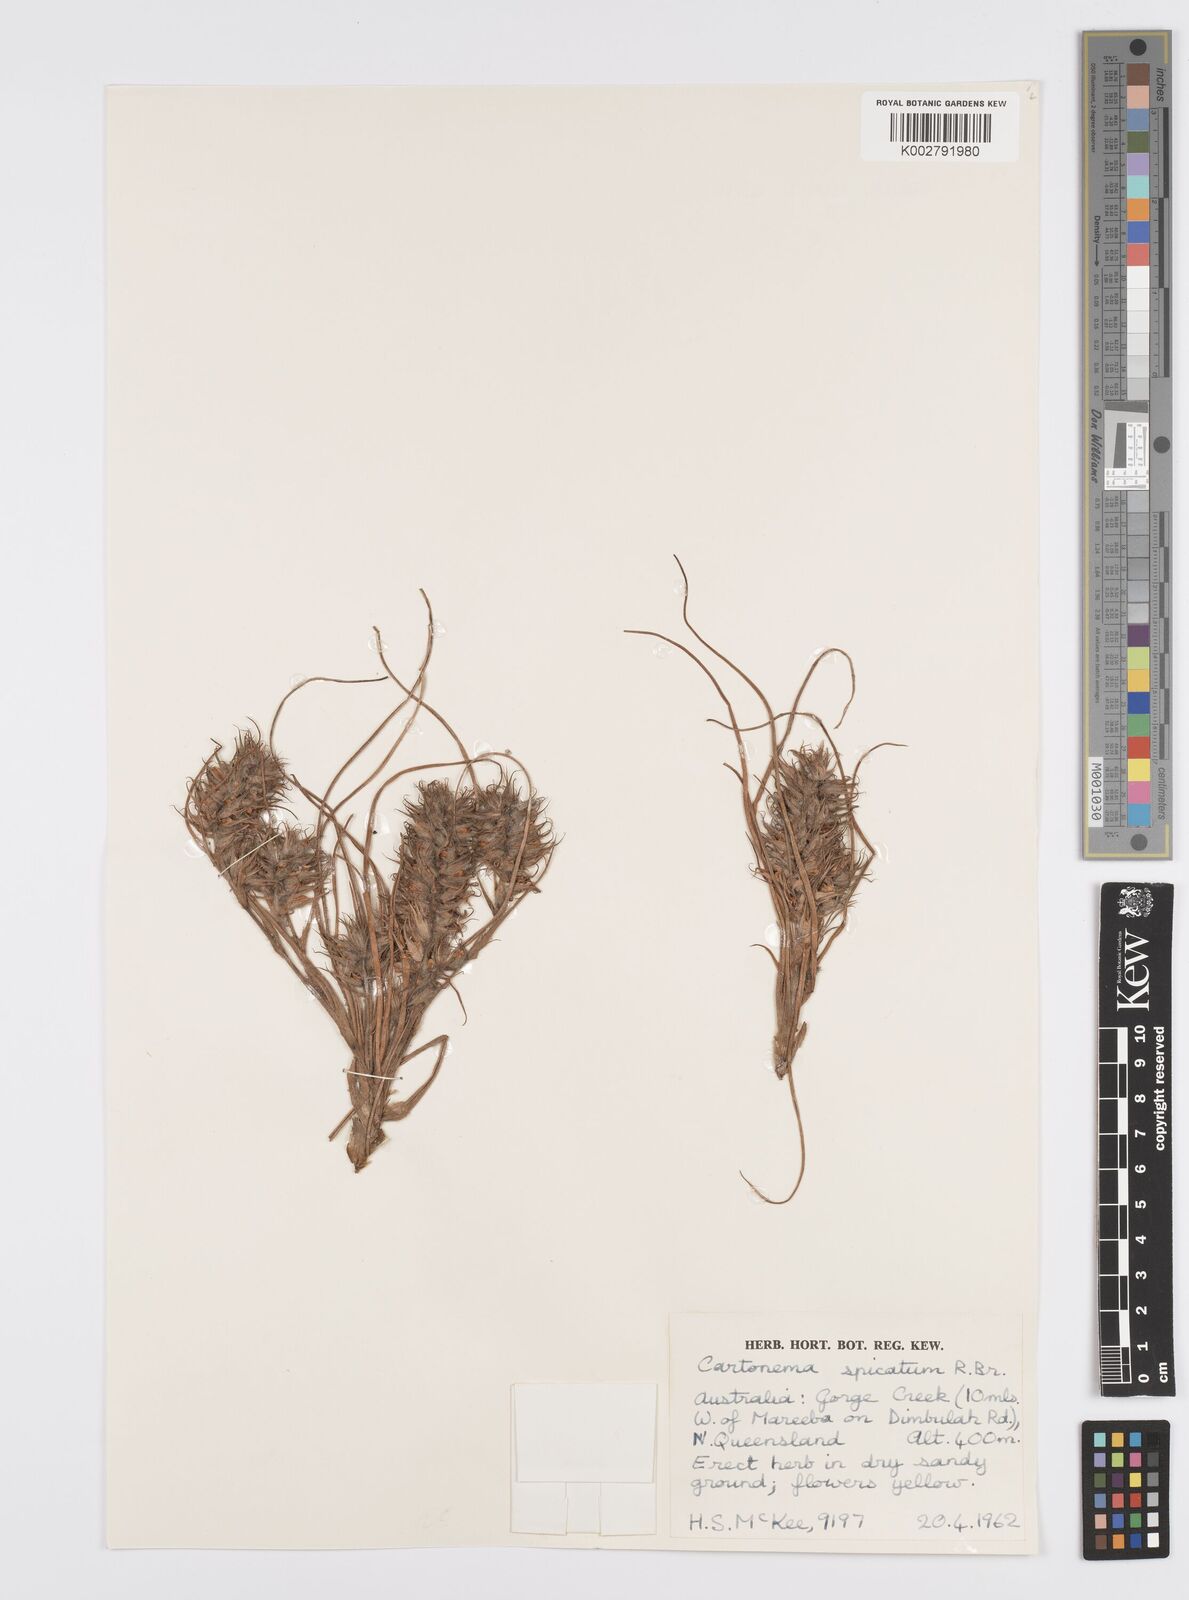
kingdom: Plantae
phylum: Tracheophyta
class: Liliopsida
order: Commelinales
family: Commelinaceae
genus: Cartonema
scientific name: Cartonema spicatum
